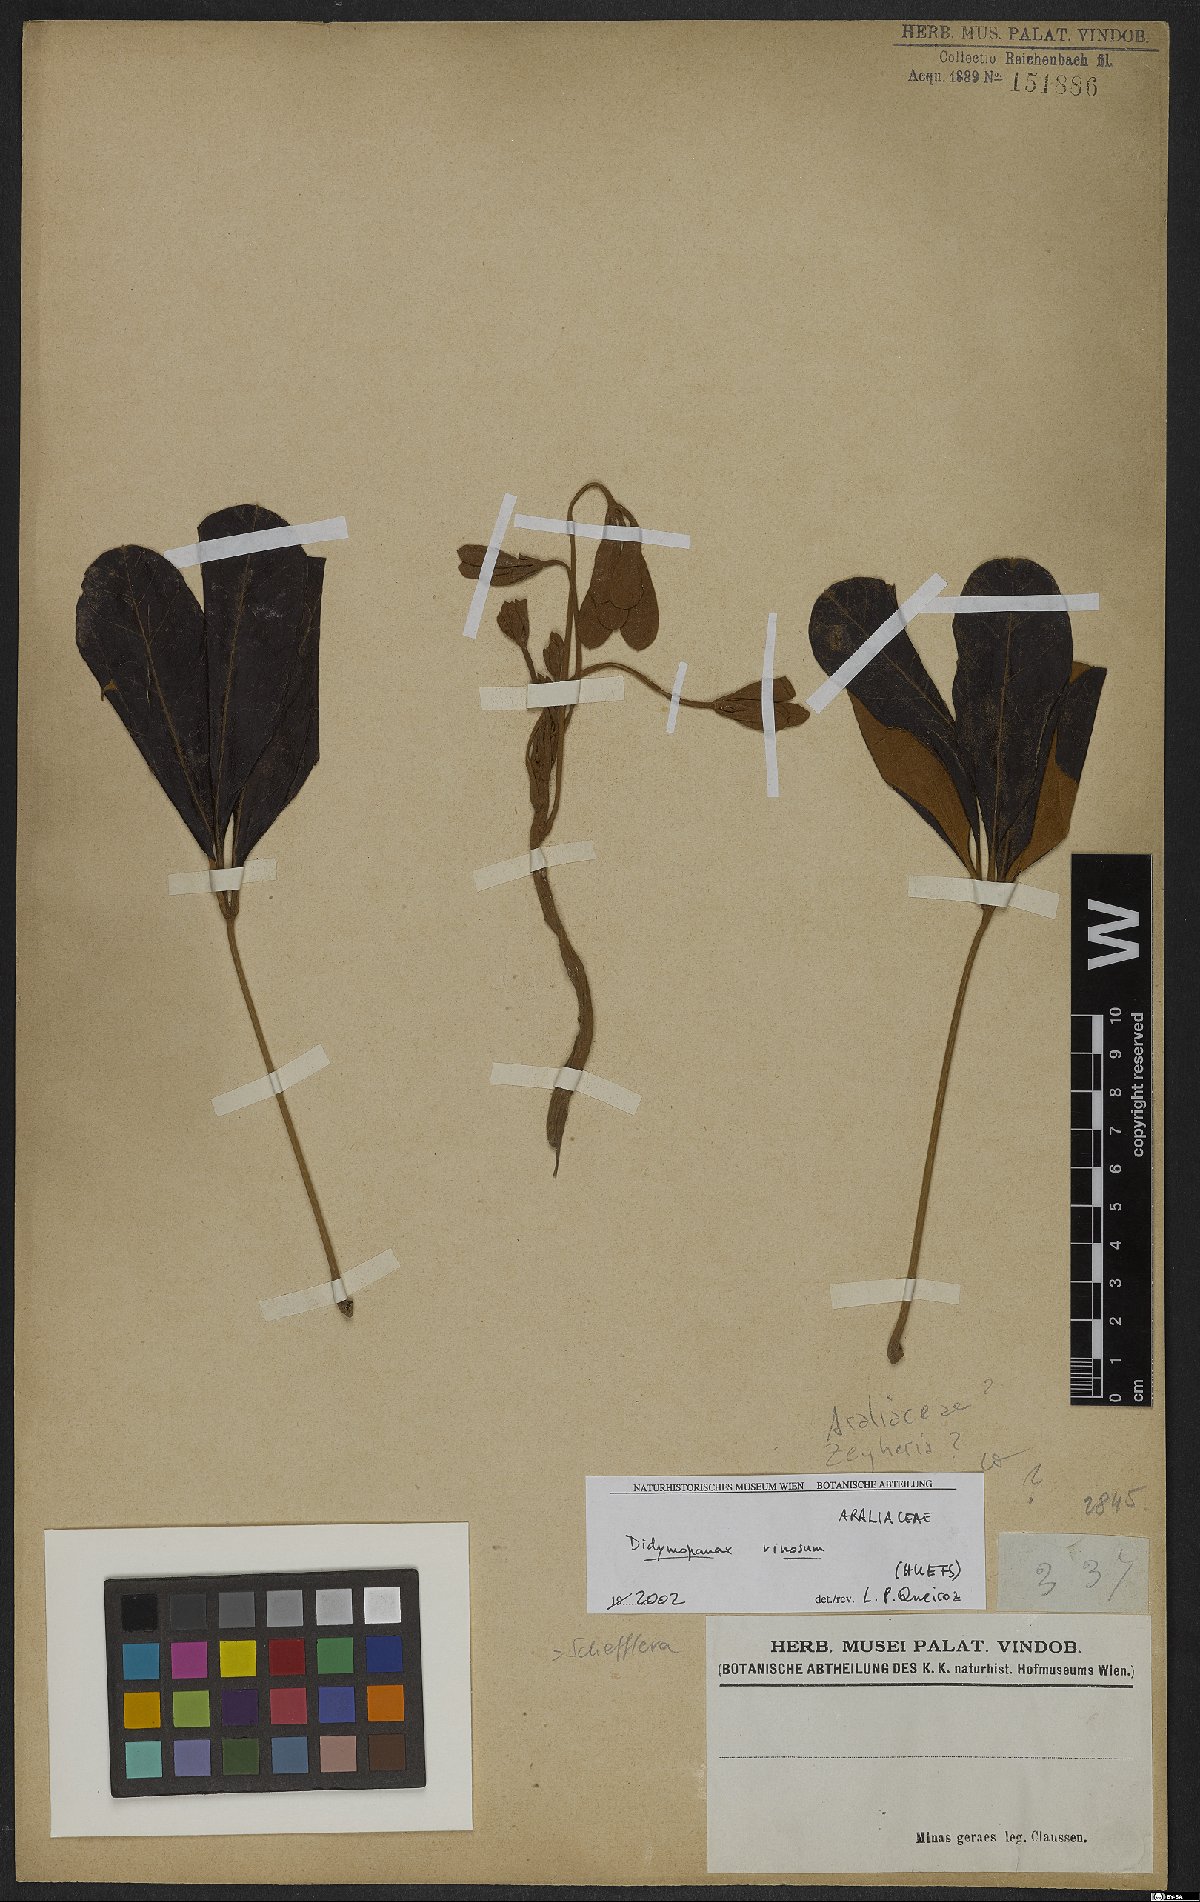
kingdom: Plantae
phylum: Tracheophyta
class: Magnoliopsida
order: Apiales
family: Araliaceae
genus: Didymopanax
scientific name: Didymopanax vinosus
